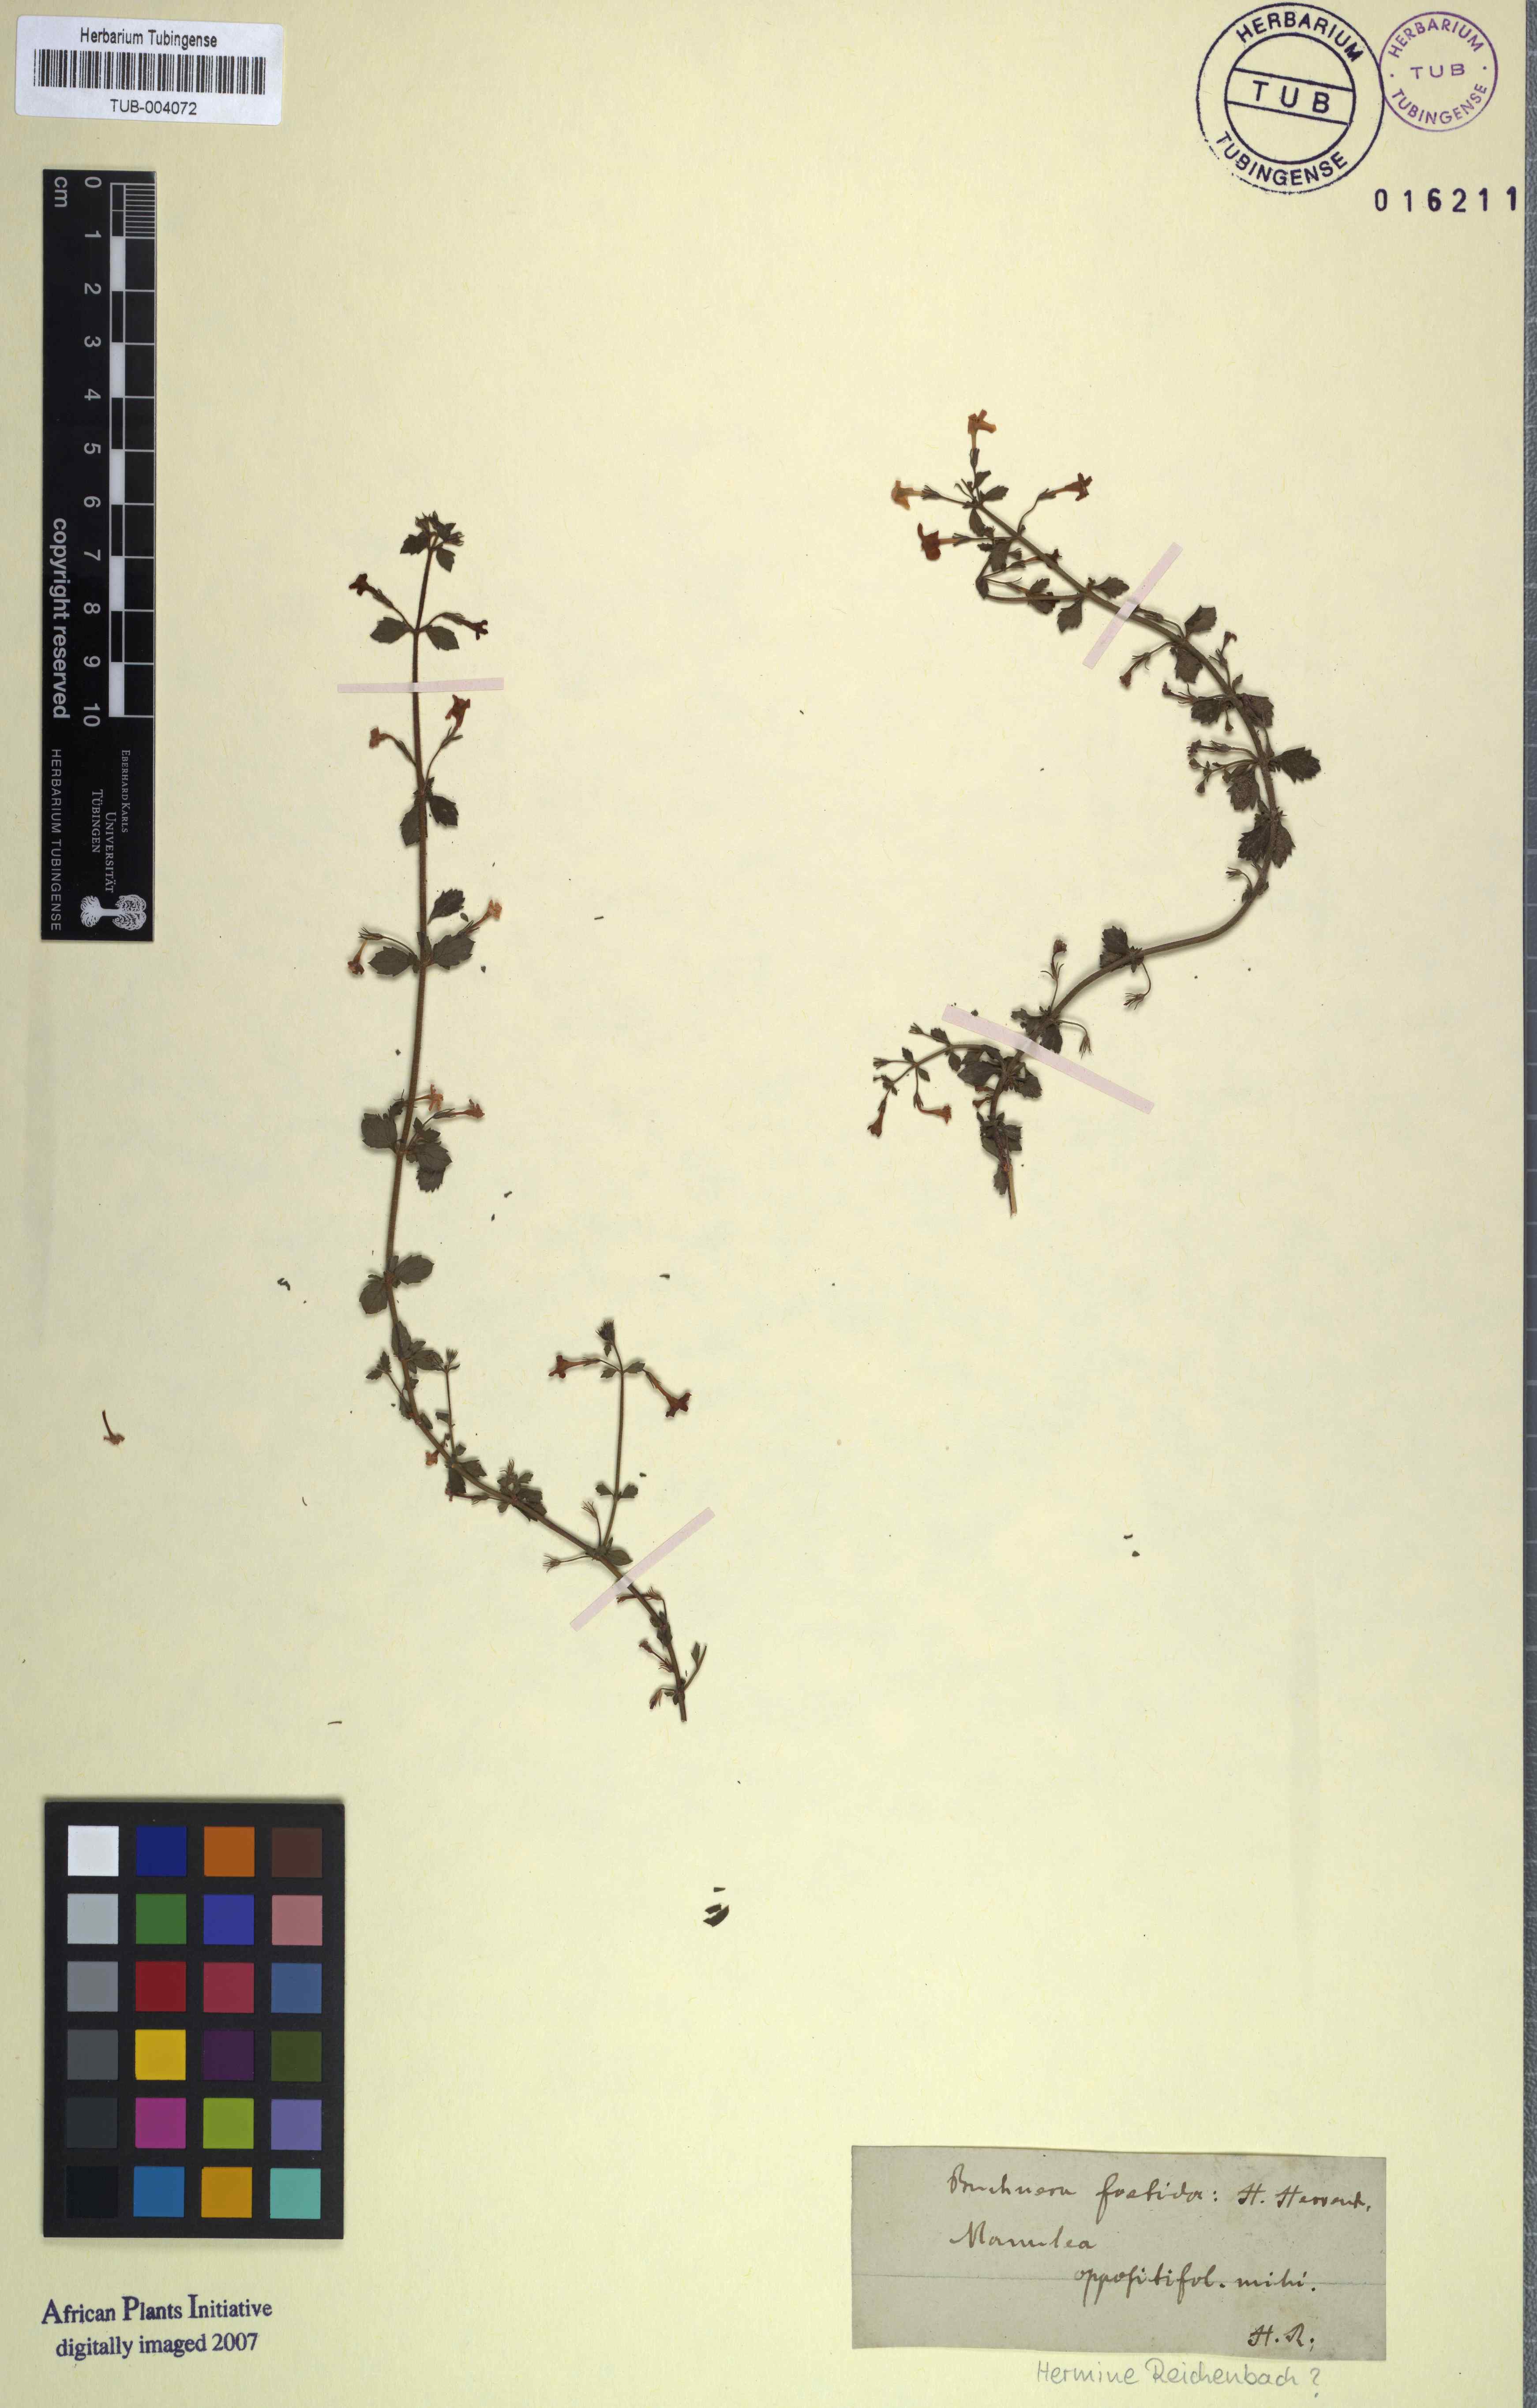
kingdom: Plantae
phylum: Tracheophyta
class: Magnoliopsida
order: Lamiales
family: Scrophulariaceae
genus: Chaenostoma
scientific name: Chaenostoma hispidum
